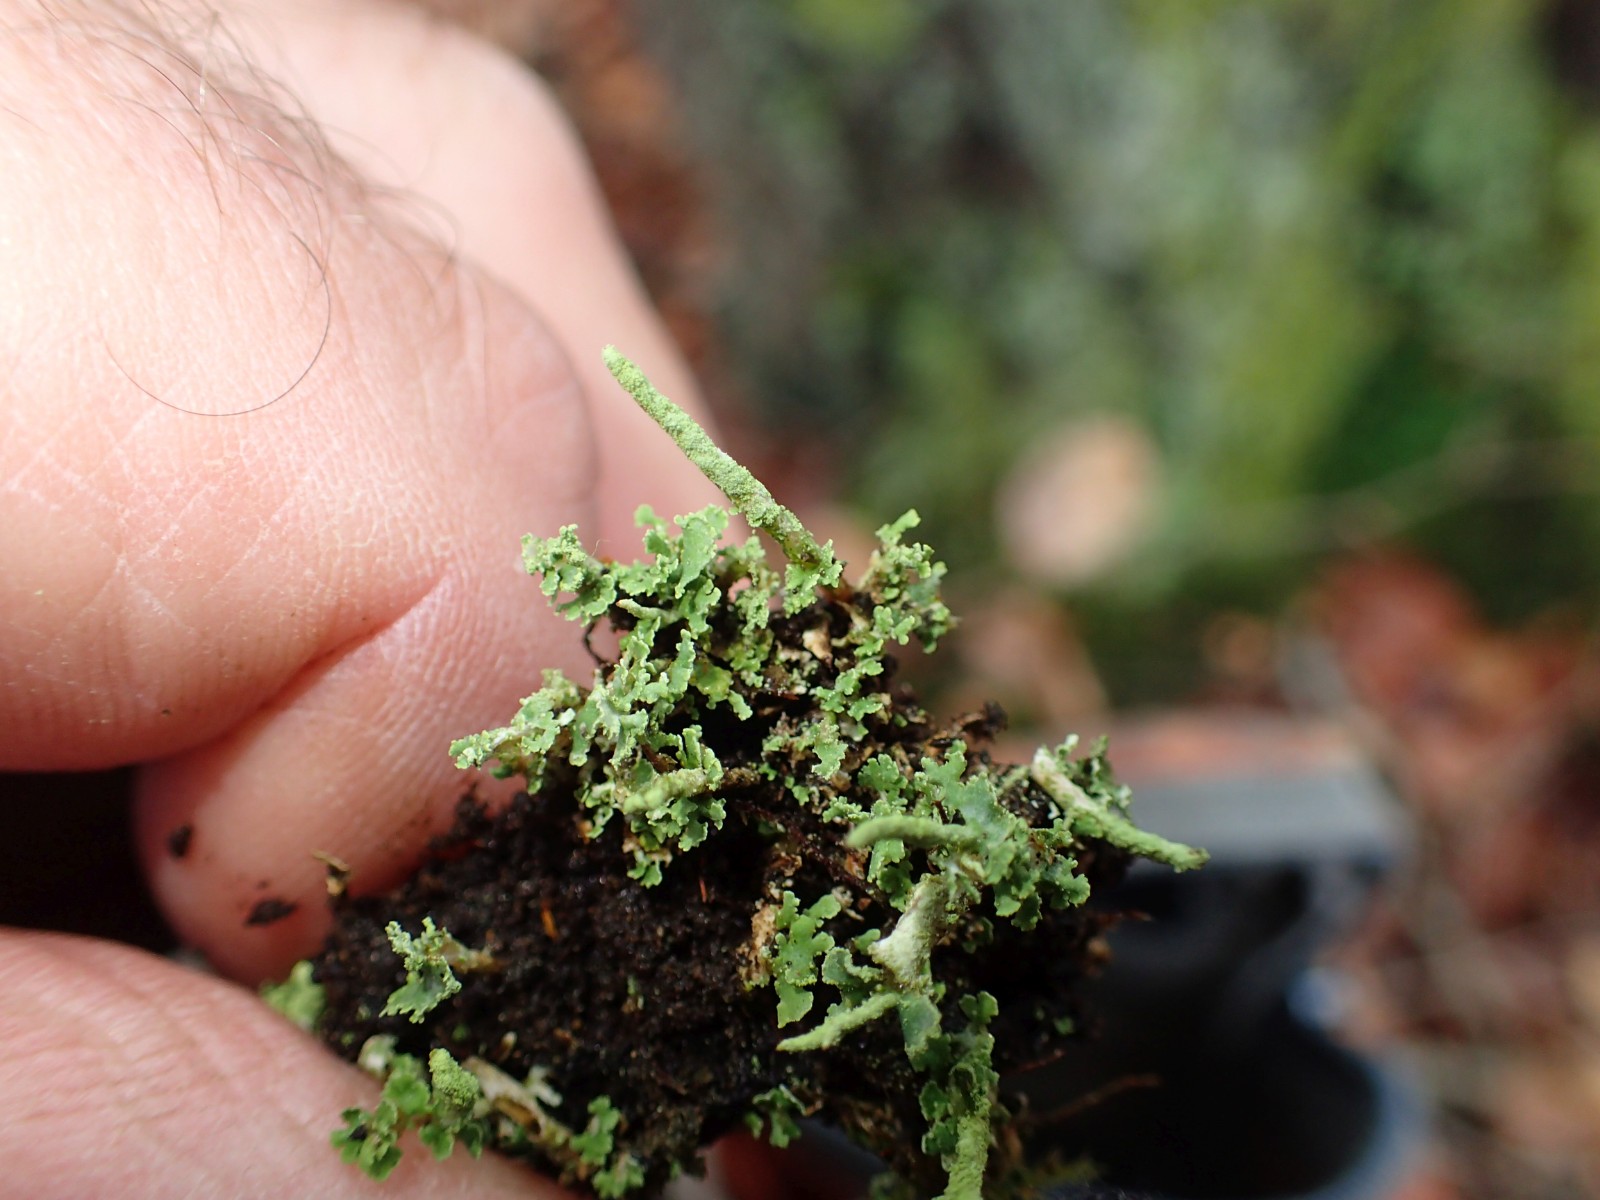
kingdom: Fungi
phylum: Ascomycota
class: Lecanoromycetes
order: Lecanorales
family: Cladoniaceae
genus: Cladonia
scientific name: Cladonia
